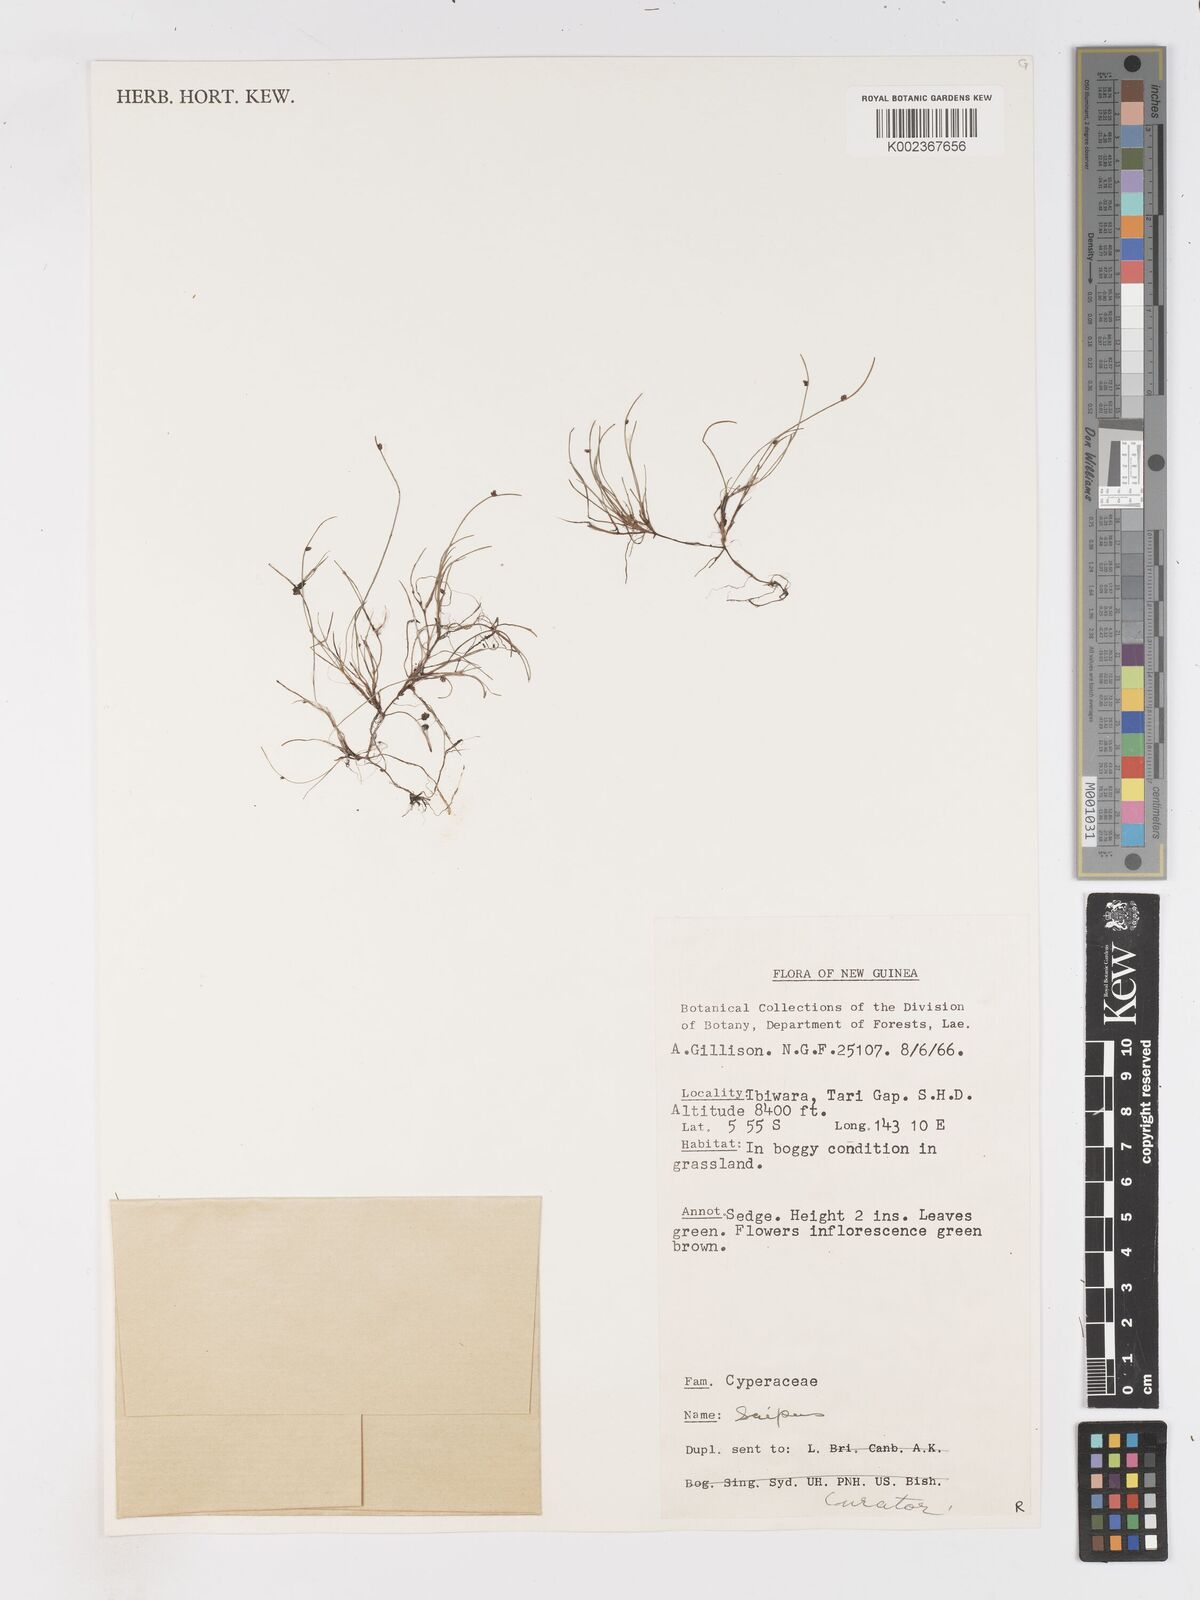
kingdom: Plantae
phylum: Tracheophyta
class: Liliopsida
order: Poales
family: Cyperaceae
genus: Isolepis
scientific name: Isolepis subtilissima
